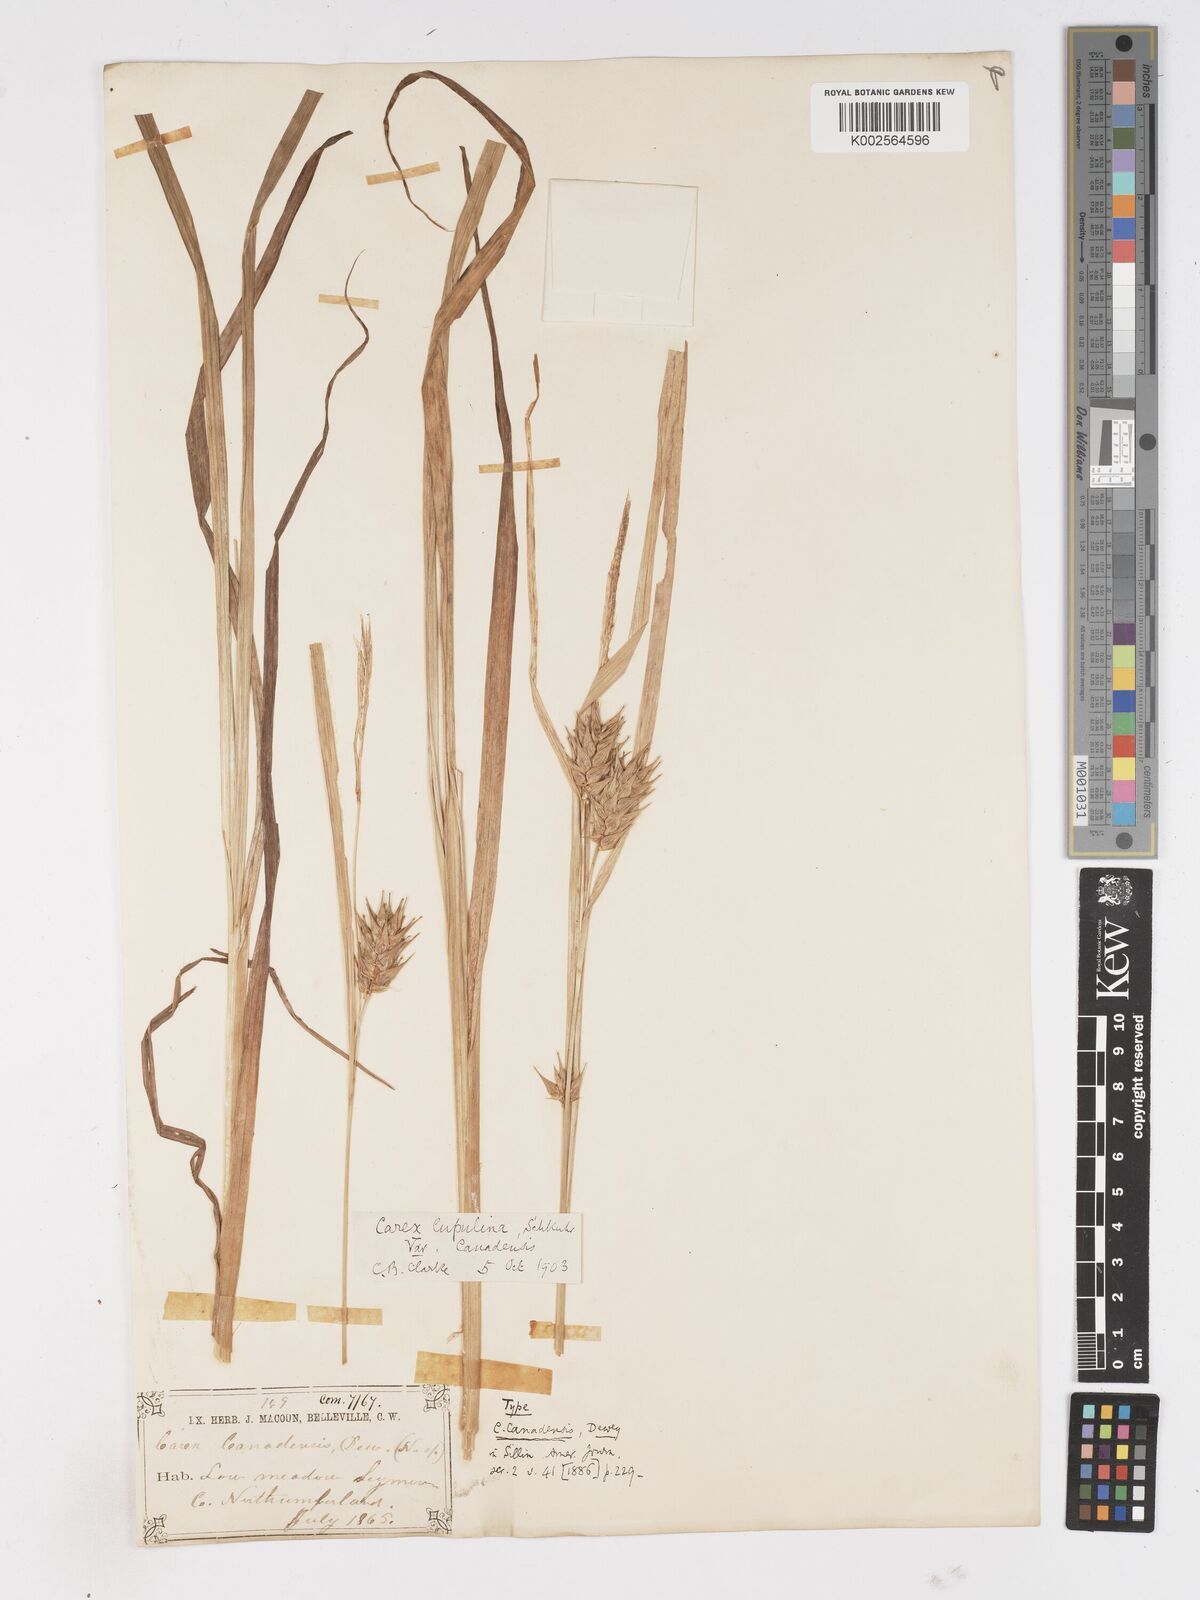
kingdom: Plantae
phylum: Tracheophyta
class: Liliopsida
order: Poales
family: Cyperaceae
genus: Carex
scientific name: Carex lupulina
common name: Hop sedge
